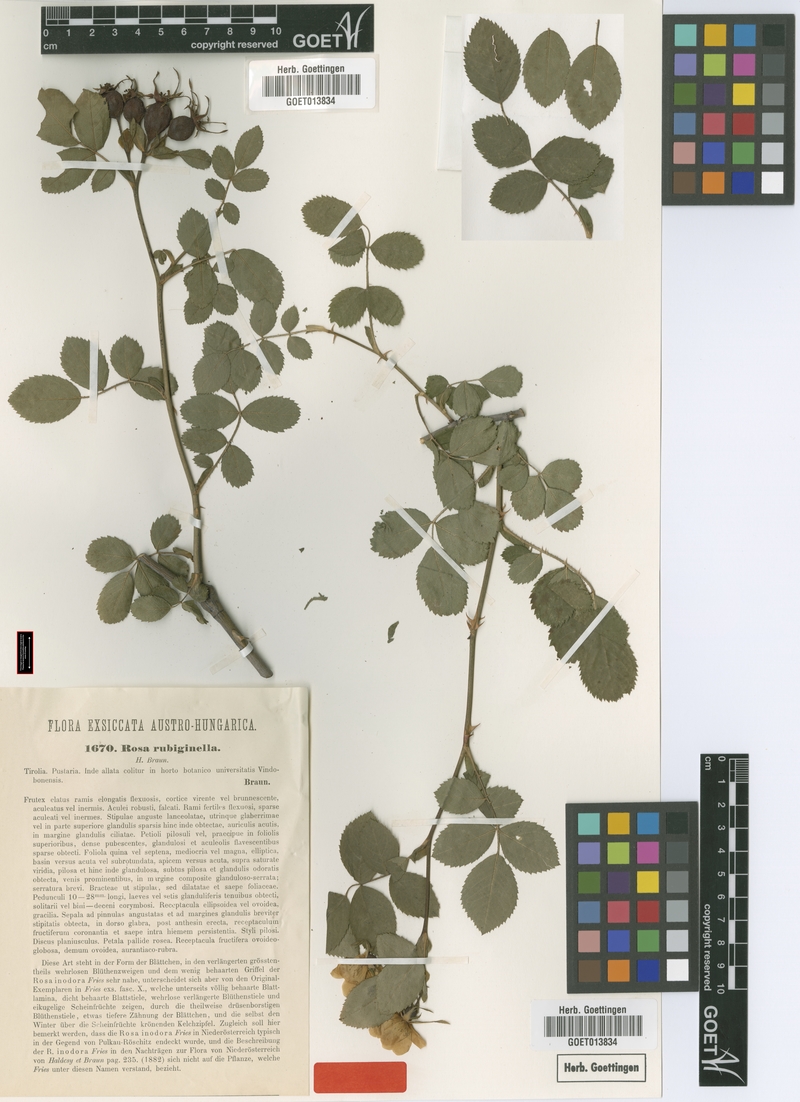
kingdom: Plantae
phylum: Tracheophyta
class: Magnoliopsida
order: Rosales
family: Rosaceae
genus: Rosa
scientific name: Rosa rubiginella
